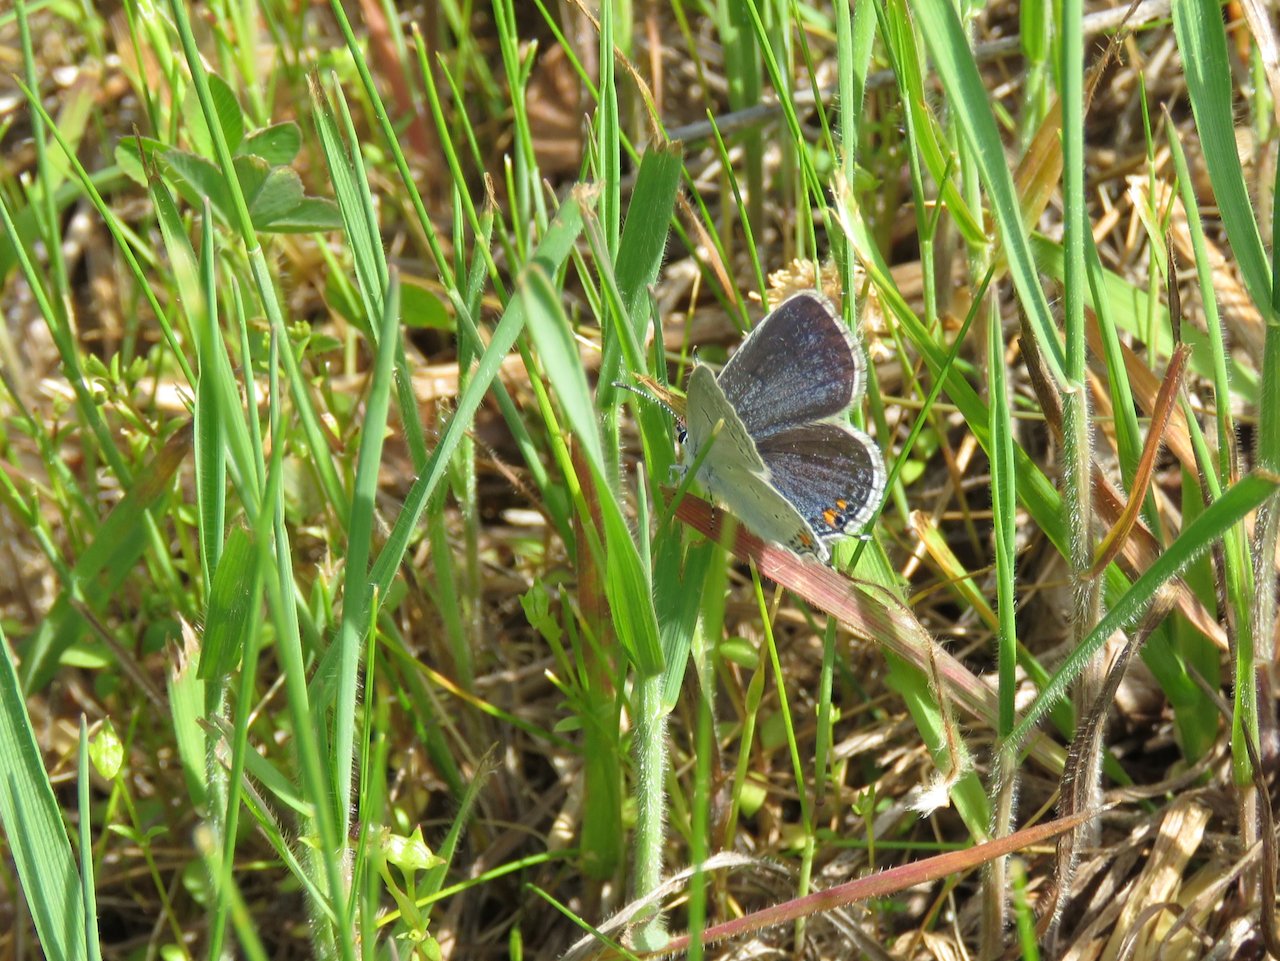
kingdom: Animalia
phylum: Arthropoda
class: Insecta
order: Lepidoptera
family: Lycaenidae
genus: Elkalyce
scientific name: Elkalyce comyntas
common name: Eastern Tailed-Blue
